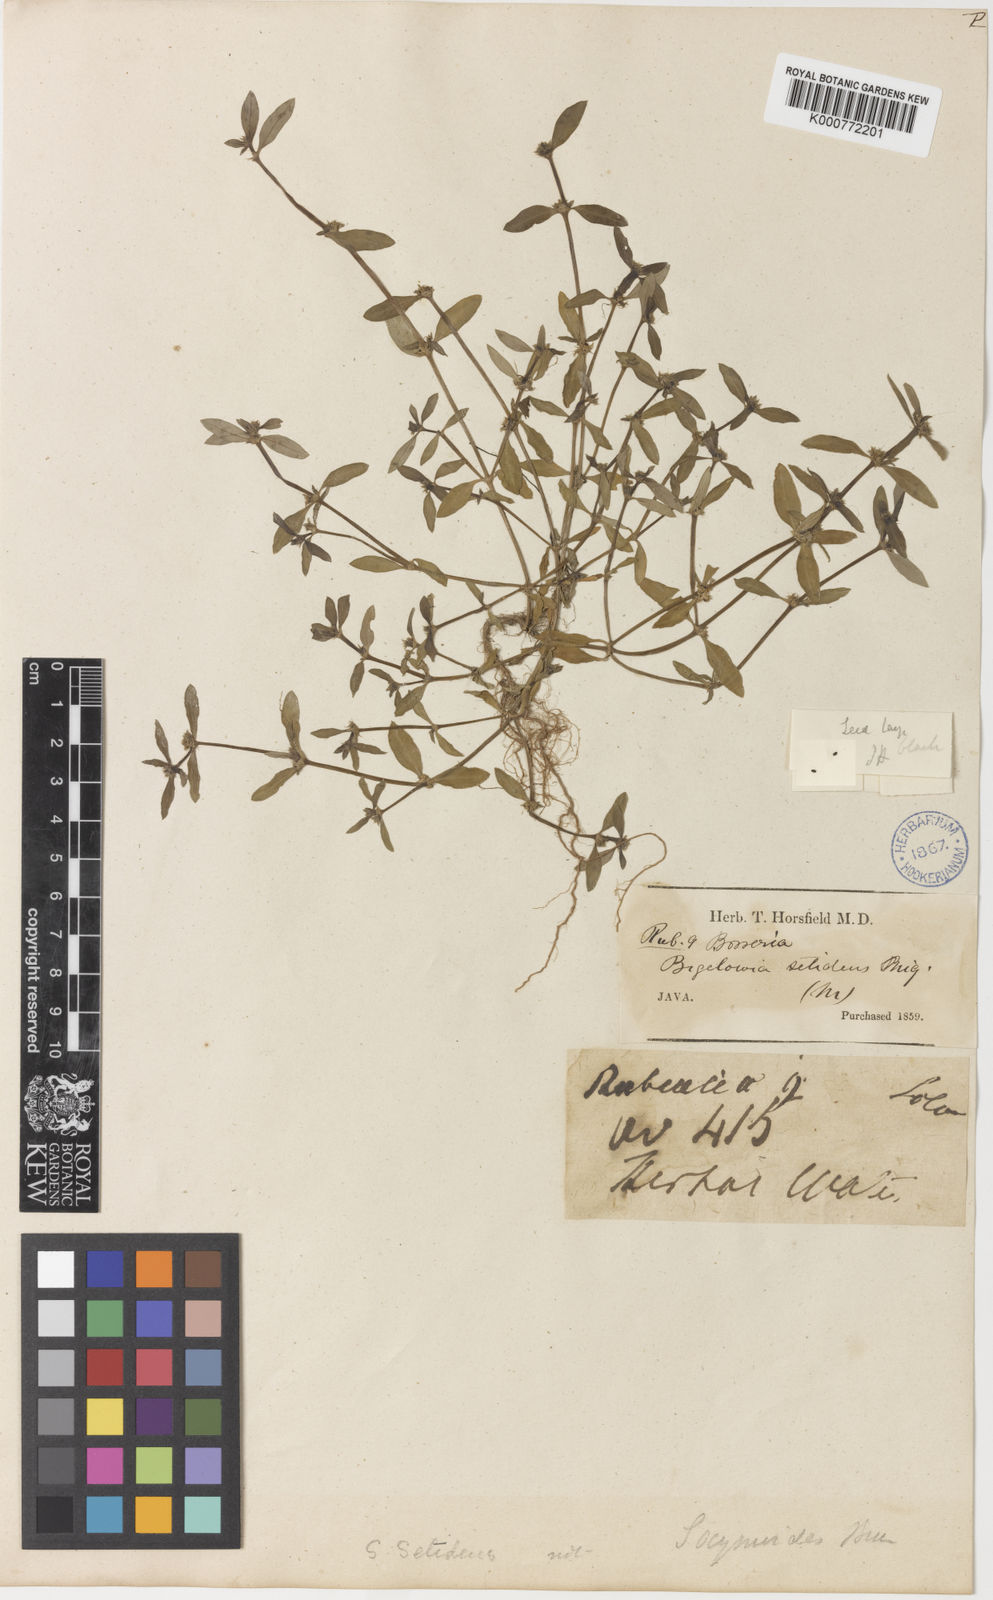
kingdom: Plantae
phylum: Tracheophyta
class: Magnoliopsida
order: Gentianales
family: Rubiaceae
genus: Spermacoce
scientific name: Spermacoce setidens
